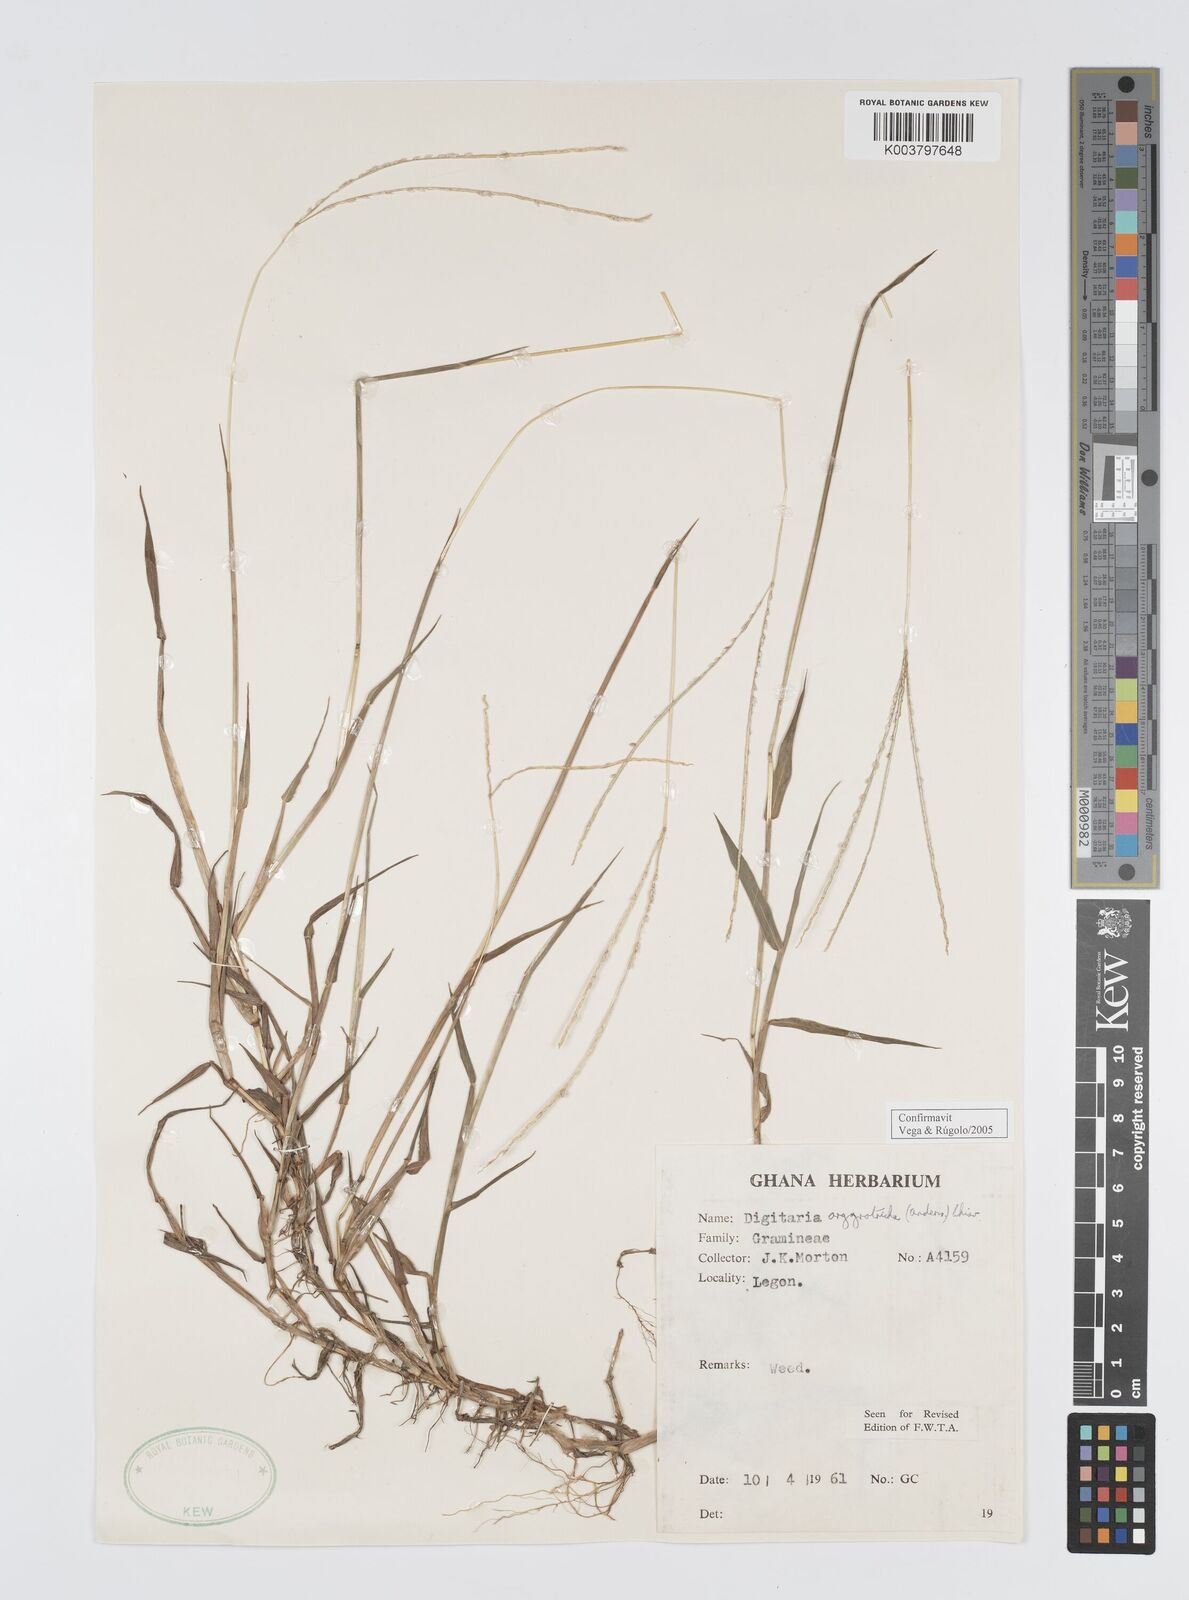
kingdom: Plantae
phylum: Tracheophyta
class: Liliopsida
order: Poales
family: Poaceae
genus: Digitaria
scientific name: Digitaria argyrotricha
